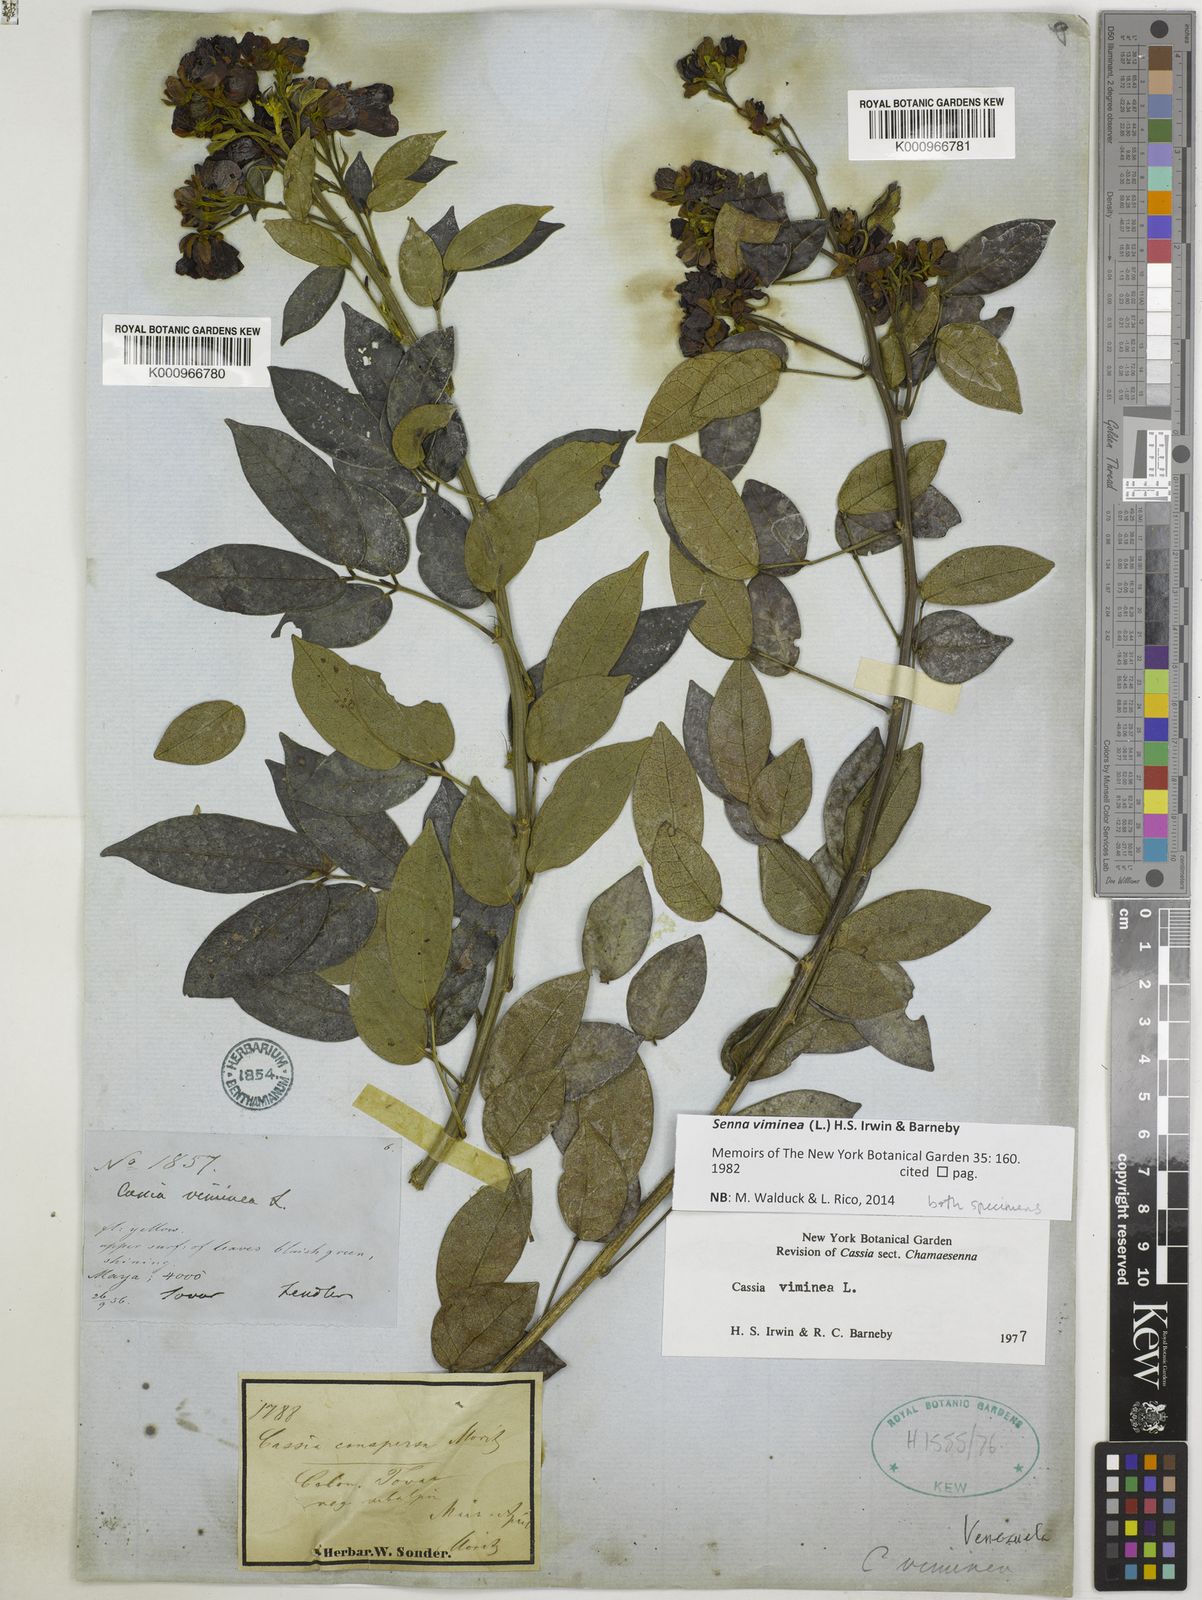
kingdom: Plantae
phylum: Tracheophyta
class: Magnoliopsida
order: Fabales
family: Fabaceae
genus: Senna
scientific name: Senna viminea
